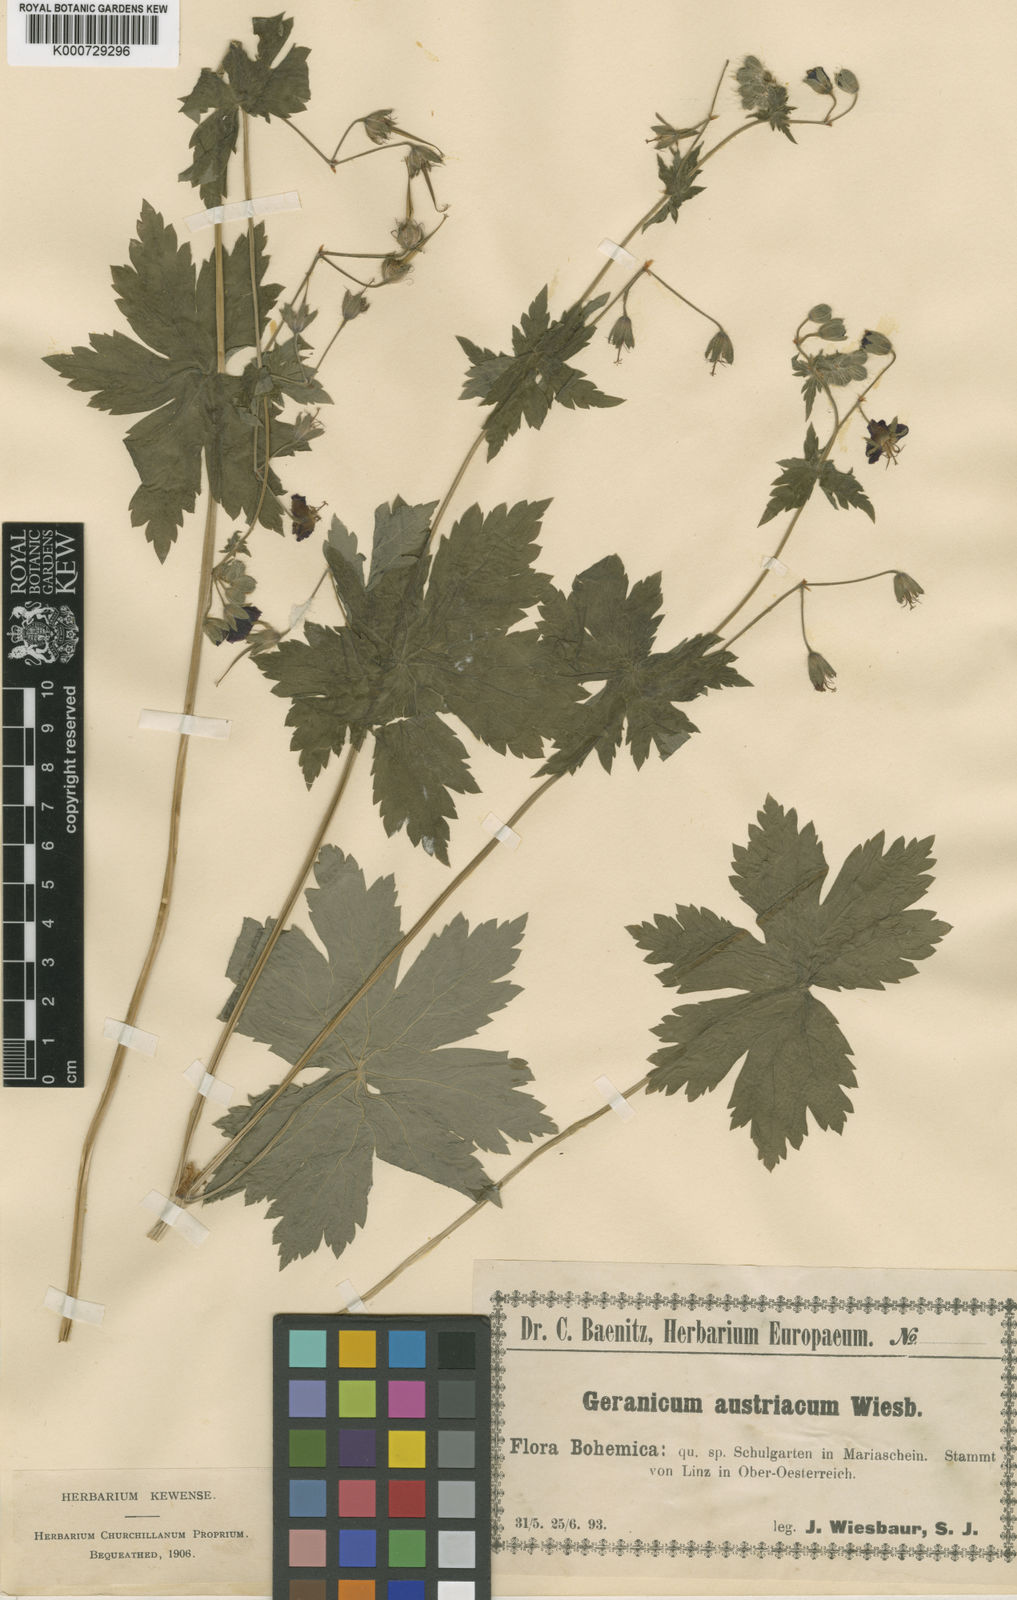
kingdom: Plantae
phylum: Tracheophyta
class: Magnoliopsida
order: Geraniales
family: Geraniaceae
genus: Geranium
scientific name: Geranium phaeum
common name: Dusky crane's-bill
